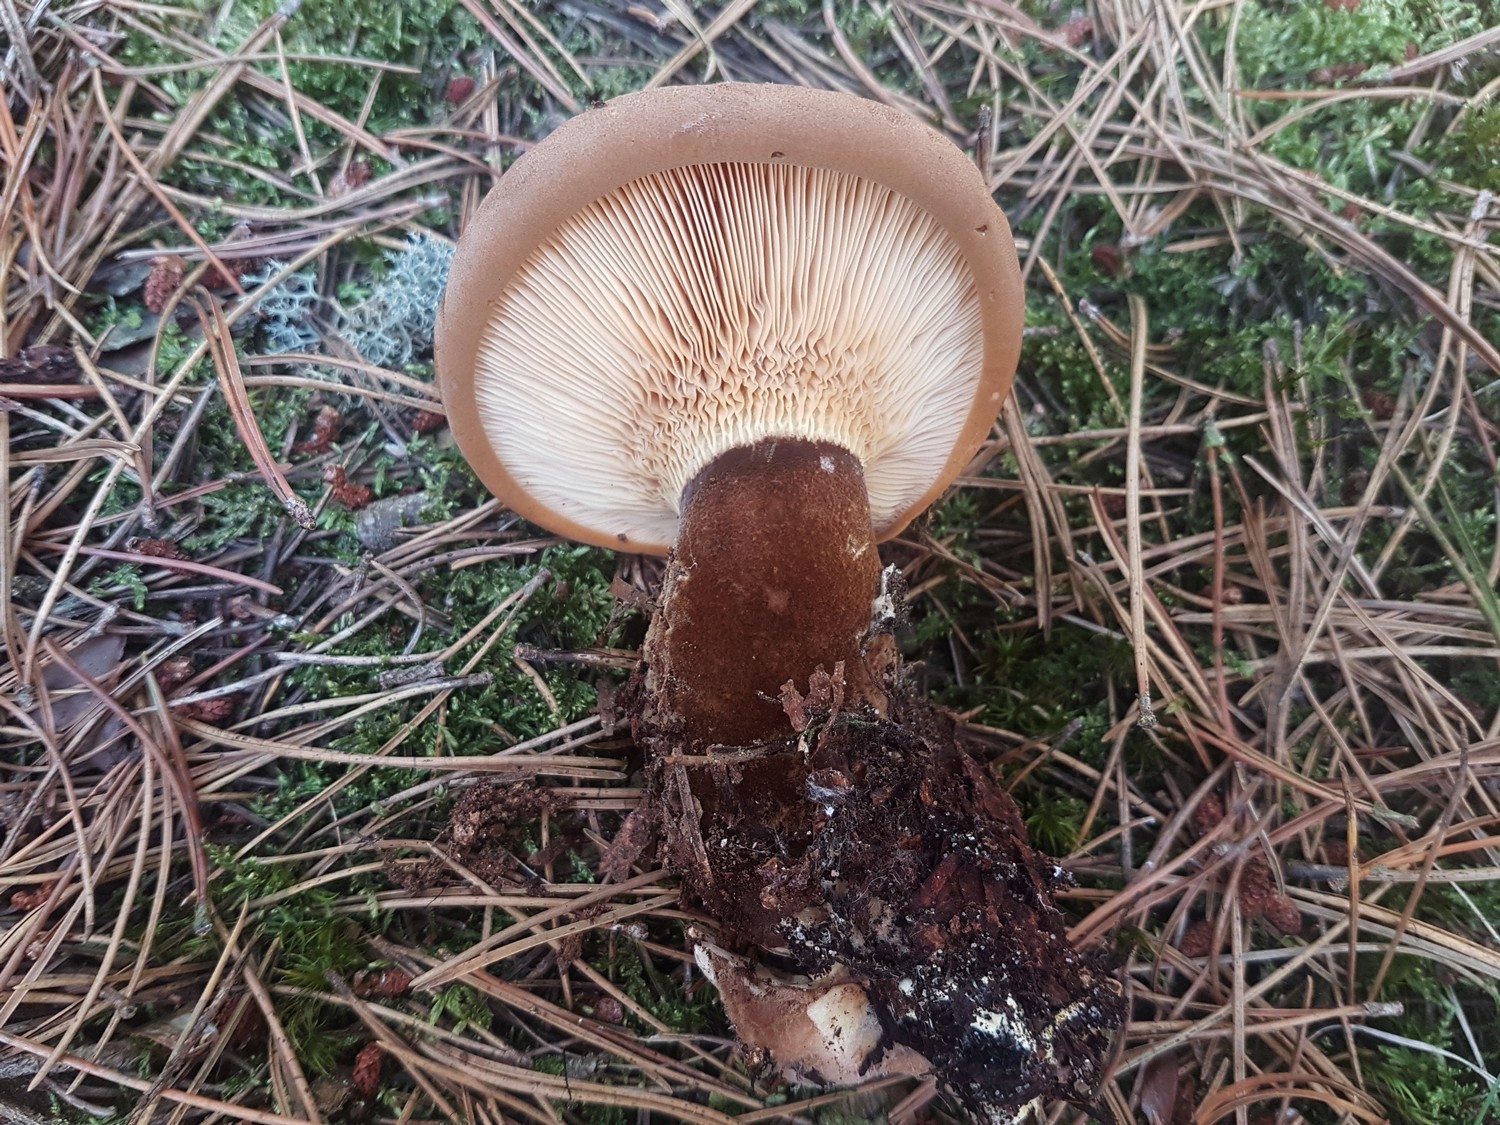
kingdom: Fungi
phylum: Basidiomycota
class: Agaricomycetes
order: Boletales
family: Tapinellaceae
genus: Tapinella
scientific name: Tapinella atrotomentosa
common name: sortfiltet viftesvamp
